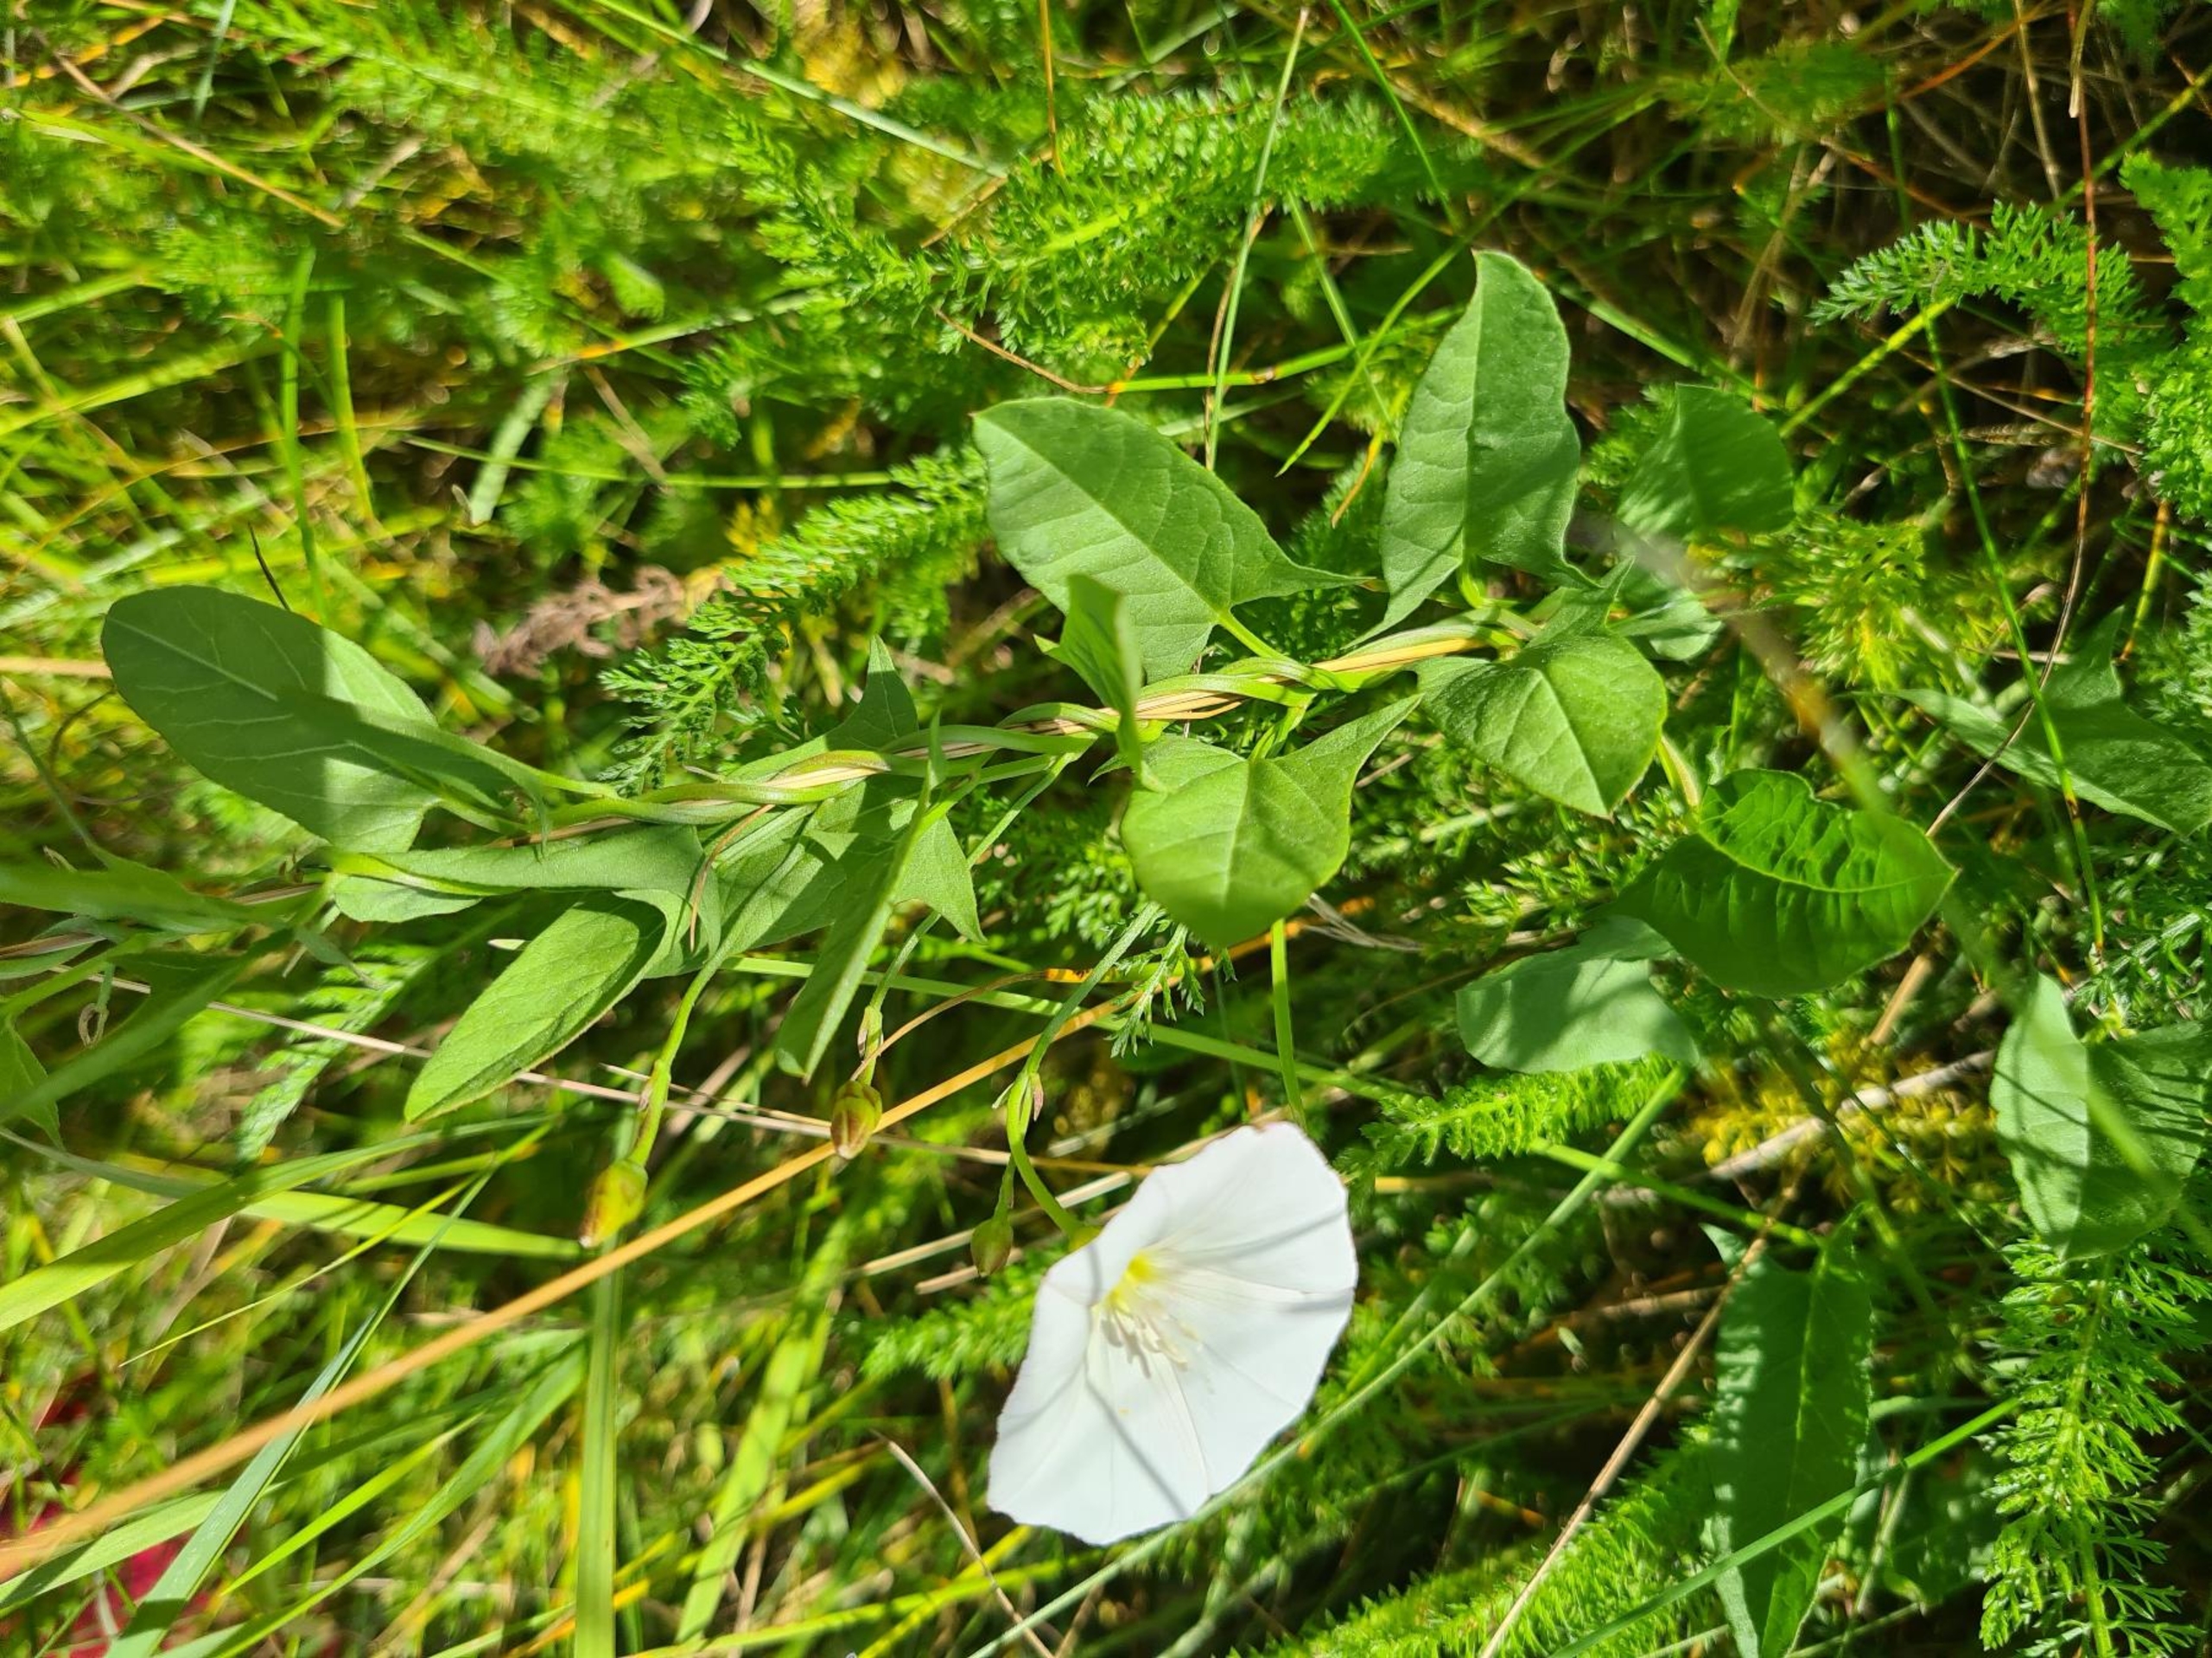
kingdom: Plantae
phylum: Tracheophyta
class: Magnoliopsida
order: Solanales
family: Convolvulaceae
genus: Convolvulus
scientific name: Convolvulus arvensis
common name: Ager-snerle
